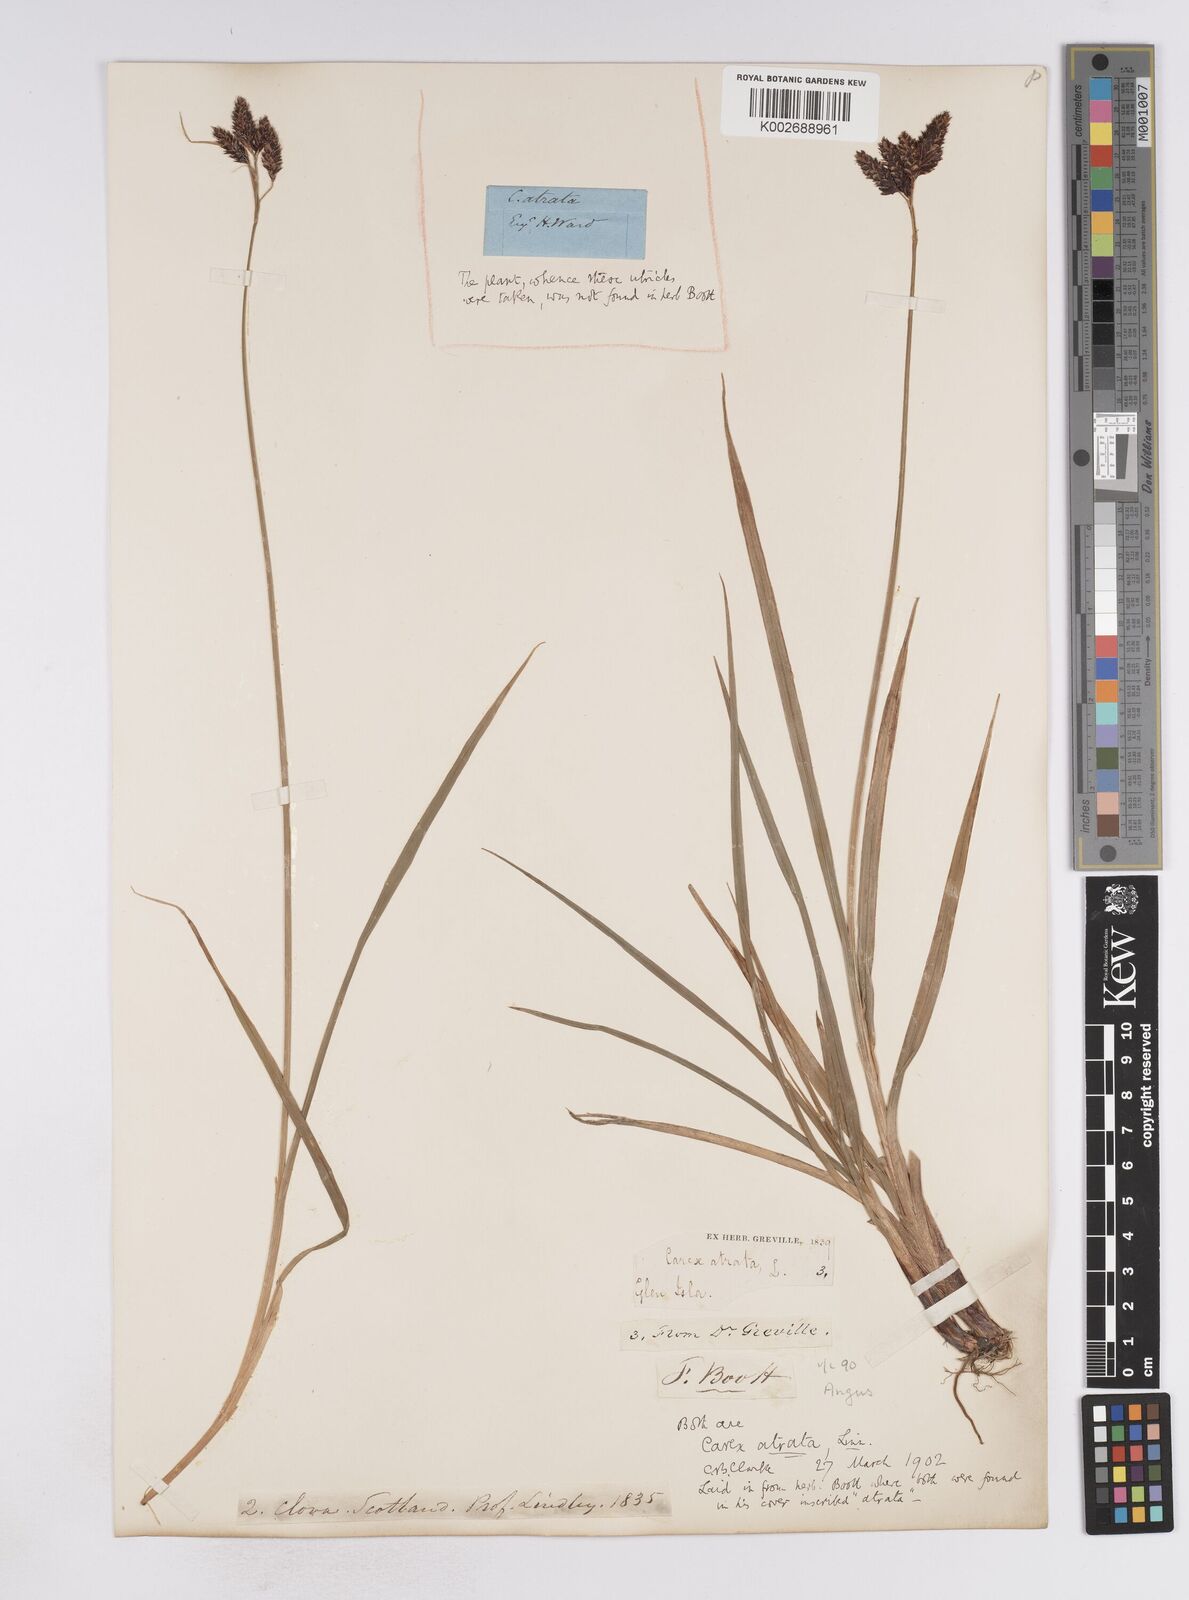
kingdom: Plantae
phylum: Tracheophyta
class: Liliopsida
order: Poales
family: Cyperaceae
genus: Carex
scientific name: Carex atrata
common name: Black alpine sedge
